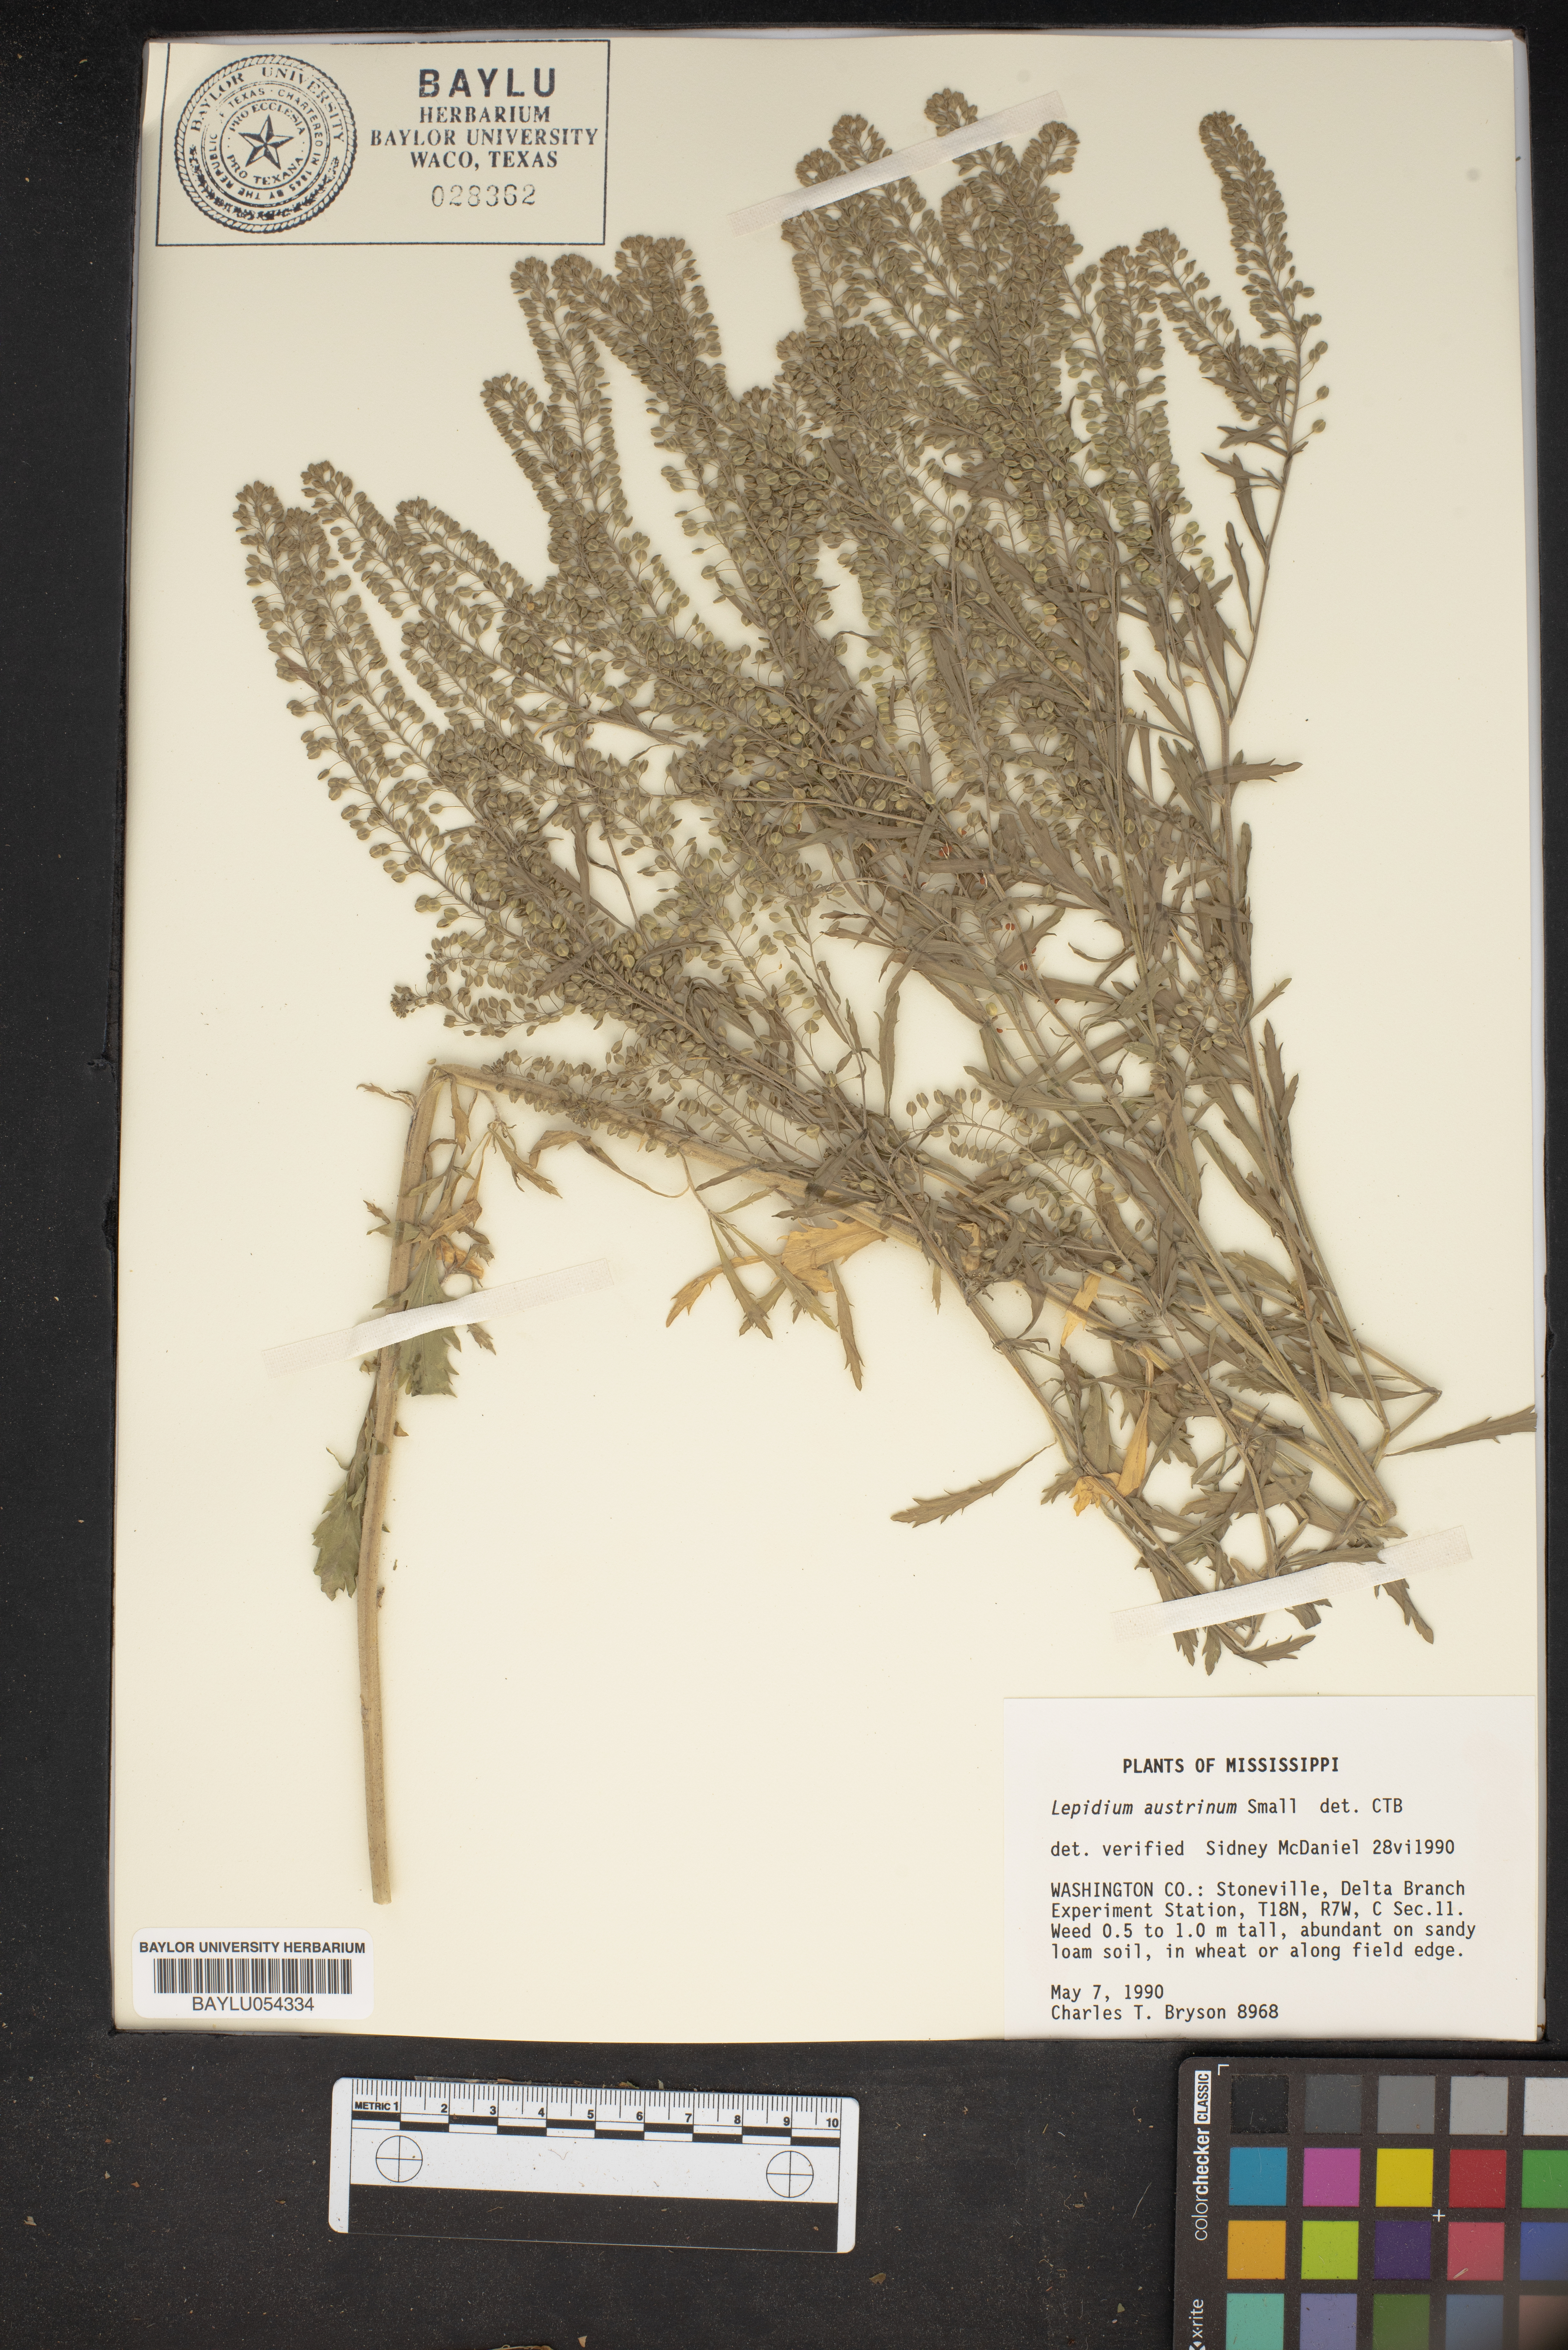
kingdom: Plantae
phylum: Tracheophyta
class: Magnoliopsida
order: Brassicales
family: Brassicaceae
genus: Lepidium
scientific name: Lepidium austrinum
